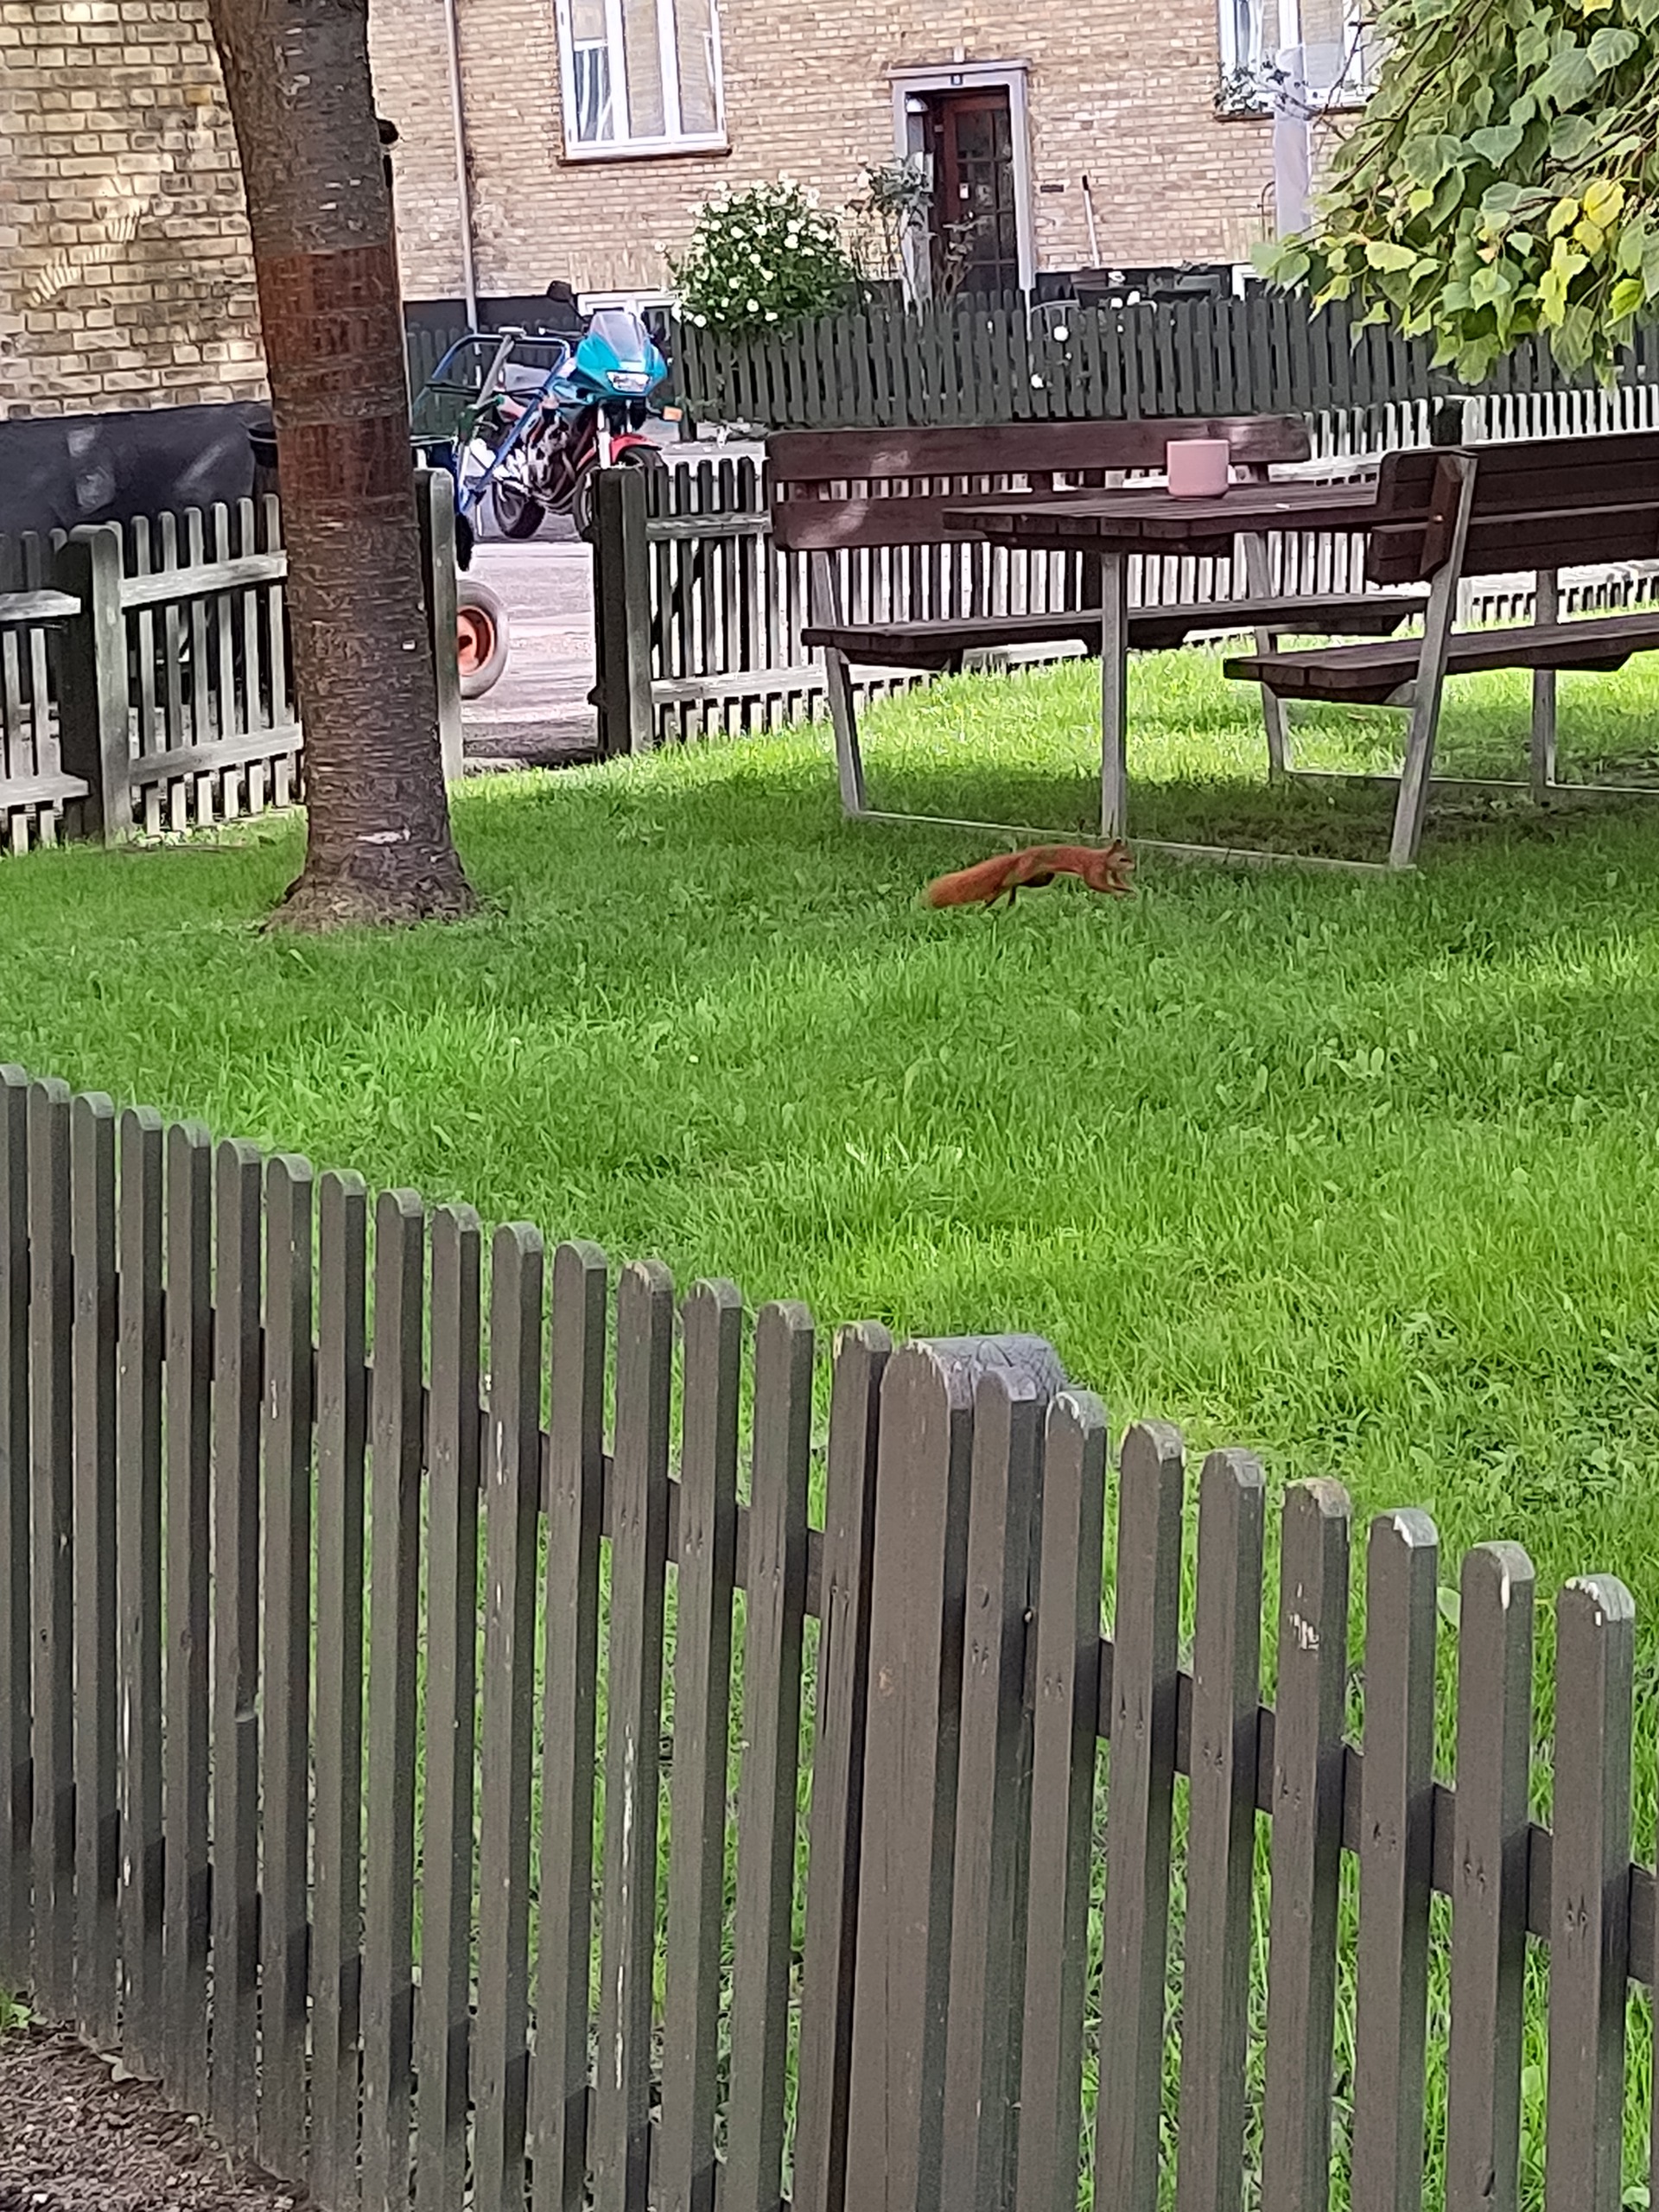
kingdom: Animalia
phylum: Chordata
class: Mammalia
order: Rodentia
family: Sciuridae
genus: Sciurus
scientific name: Sciurus vulgaris
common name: Egern
